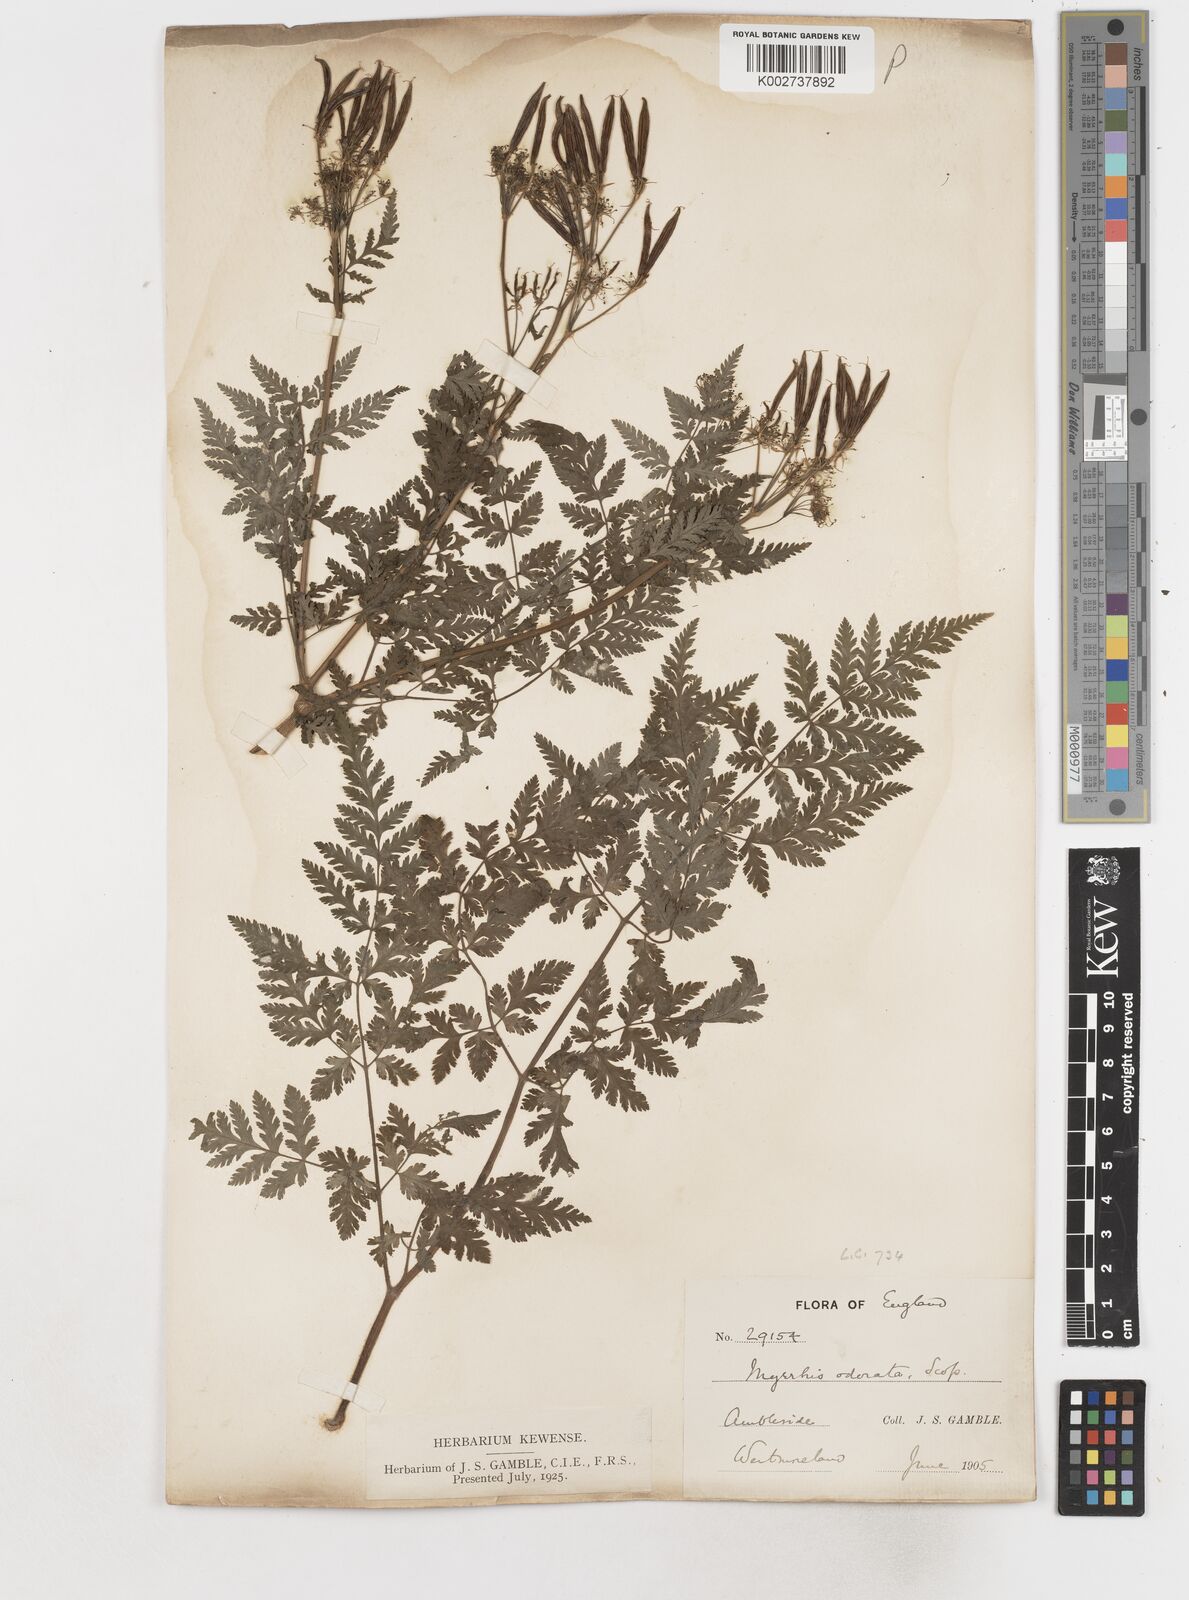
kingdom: Plantae
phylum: Tracheophyta
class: Magnoliopsida
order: Apiales
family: Apiaceae
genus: Myrrhis
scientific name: Myrrhis odorata
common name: Sweet cicely
